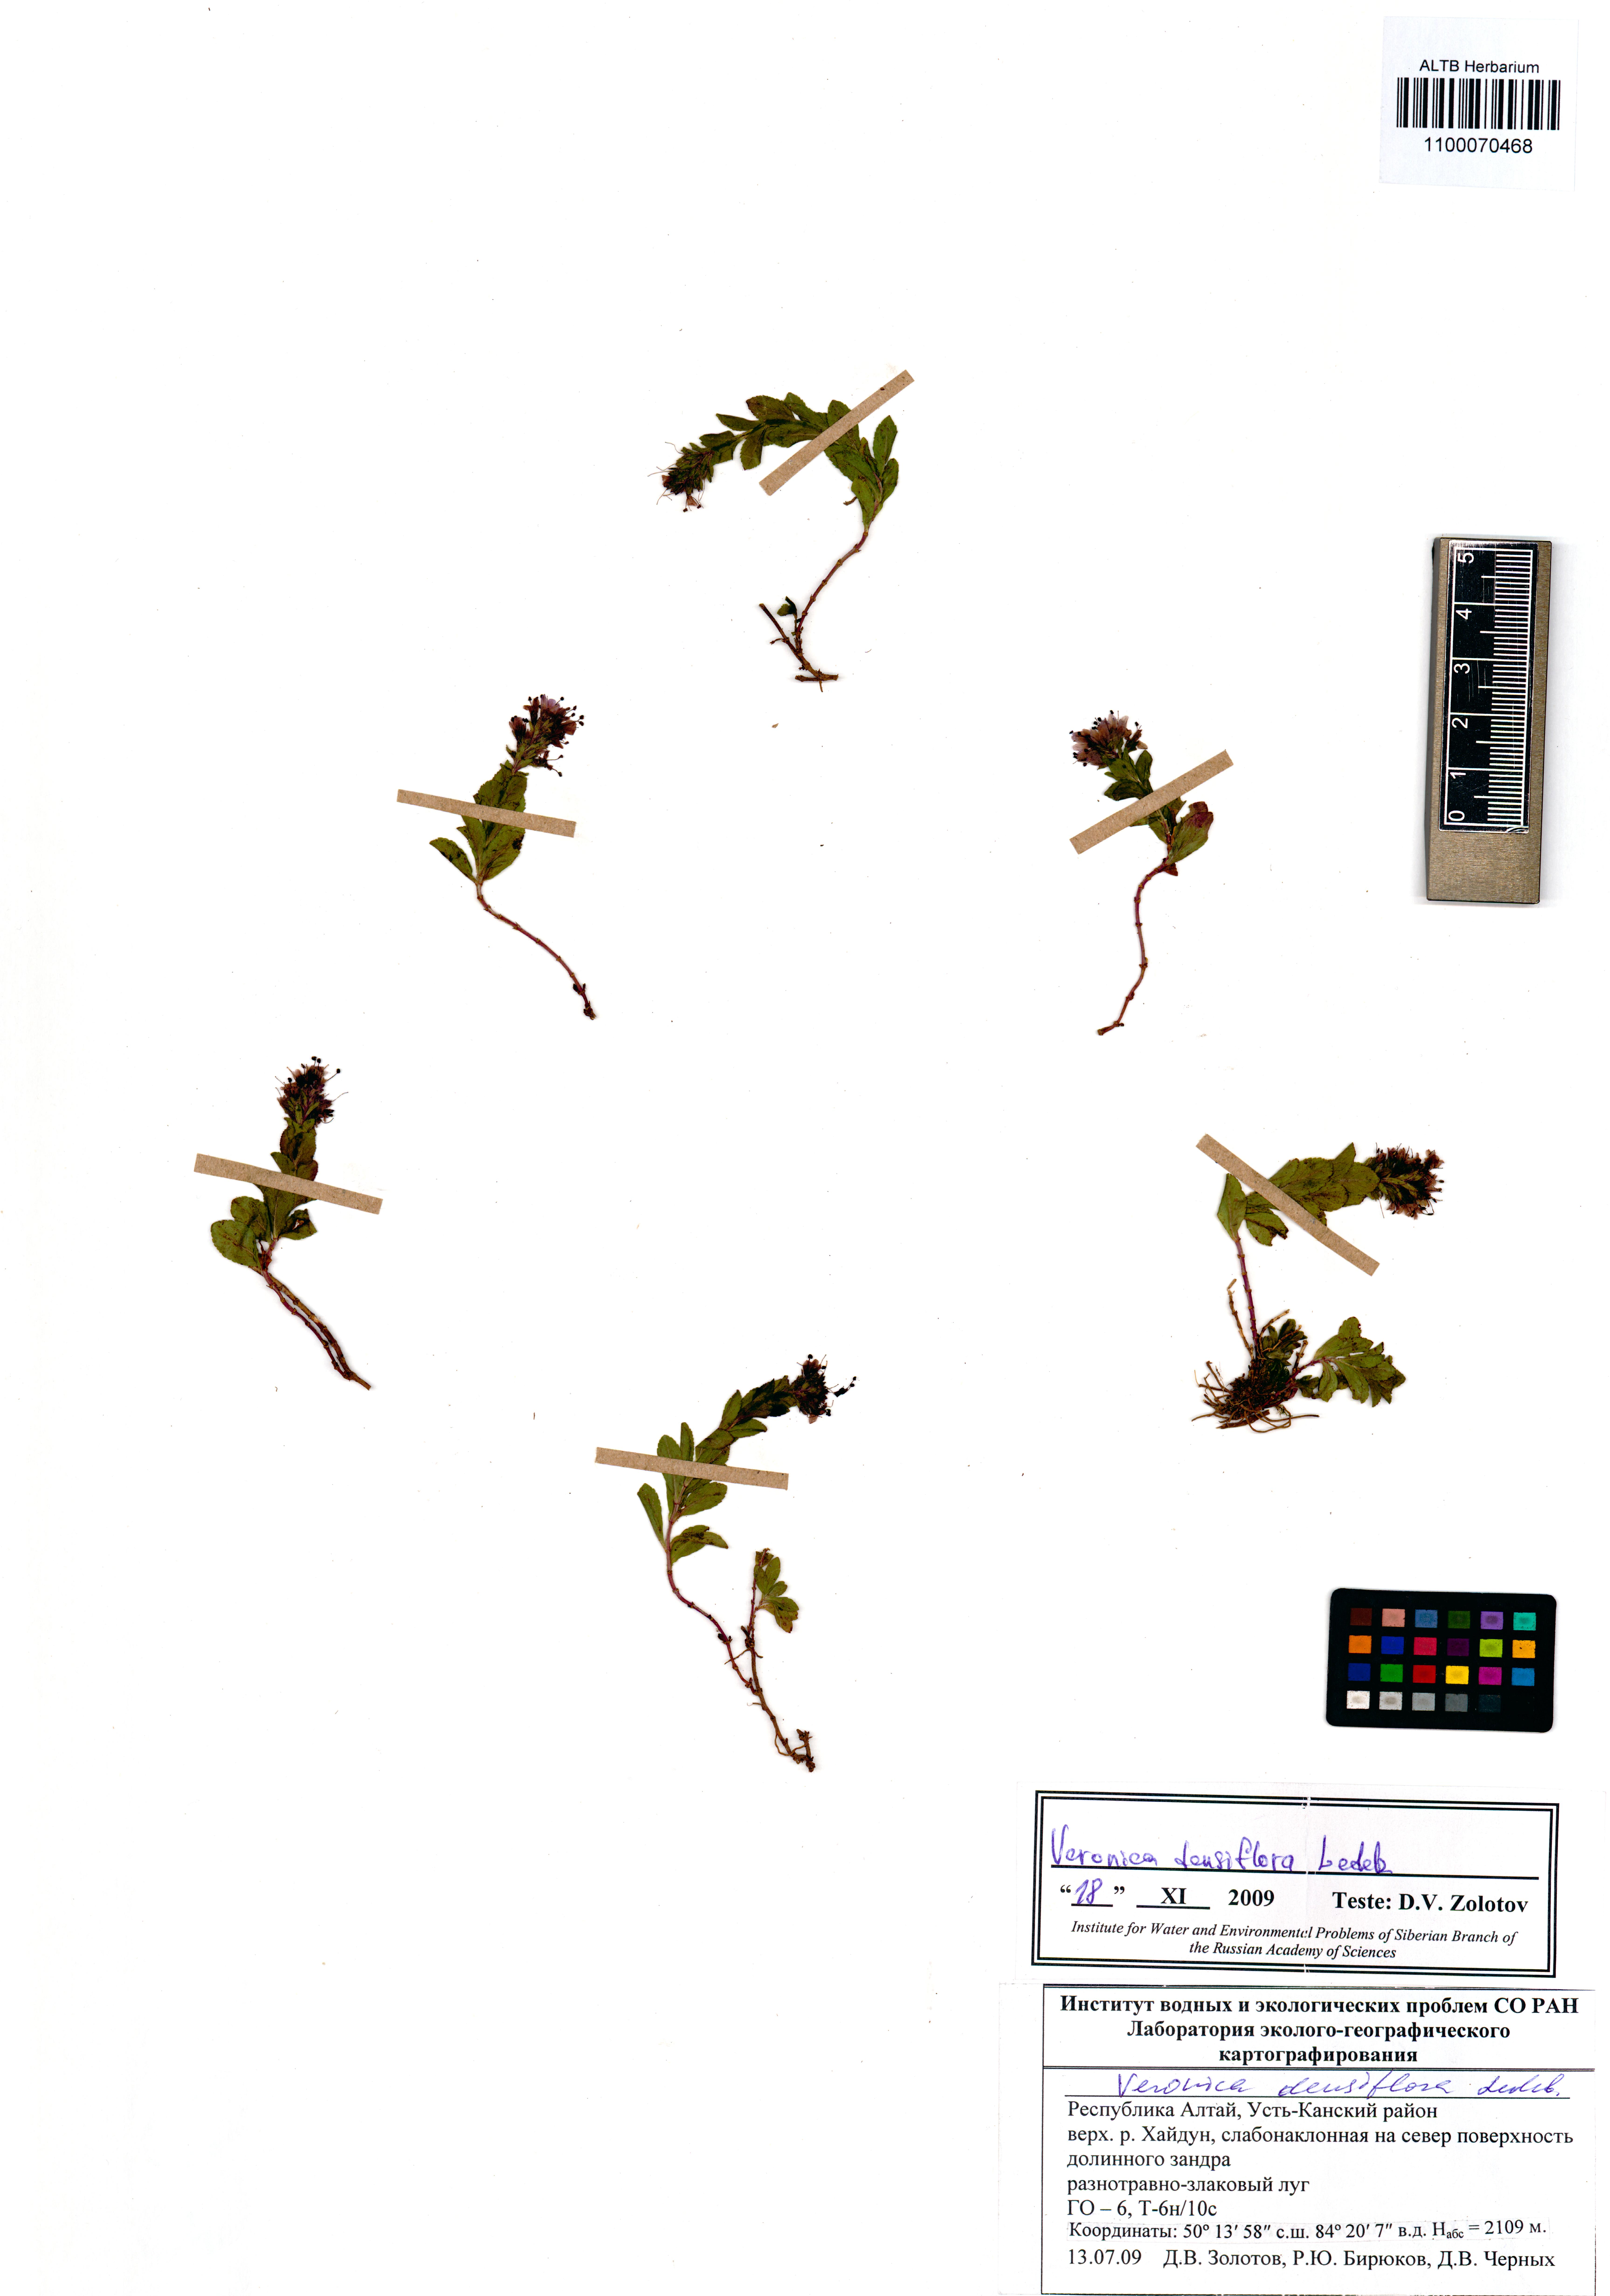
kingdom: Plantae
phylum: Tracheophyta
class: Magnoliopsida
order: Lamiales
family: Plantaginaceae
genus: Veronica
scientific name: Veronica densiflora
